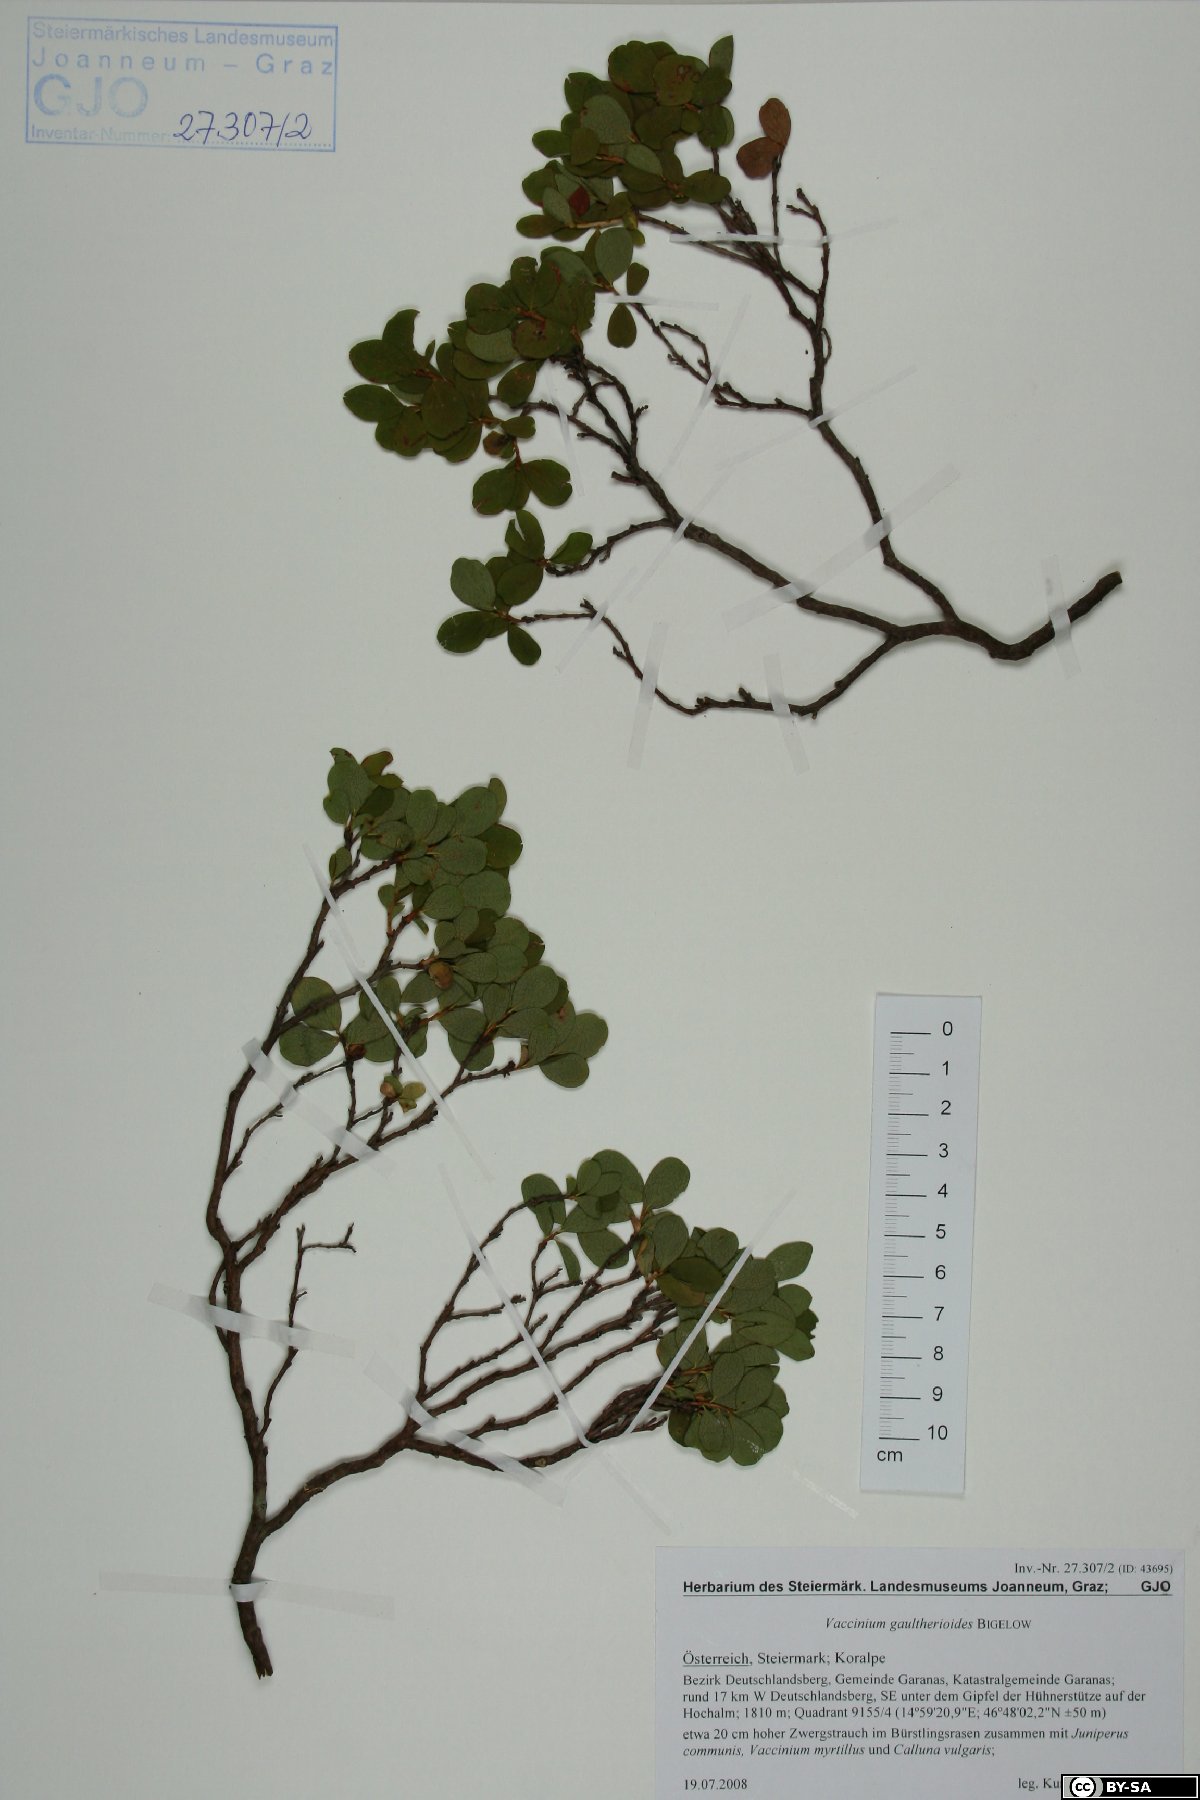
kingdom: Plantae
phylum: Tracheophyta
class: Magnoliopsida
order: Ericales
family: Ericaceae
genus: Vaccinium
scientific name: Vaccinium gaultherioides
